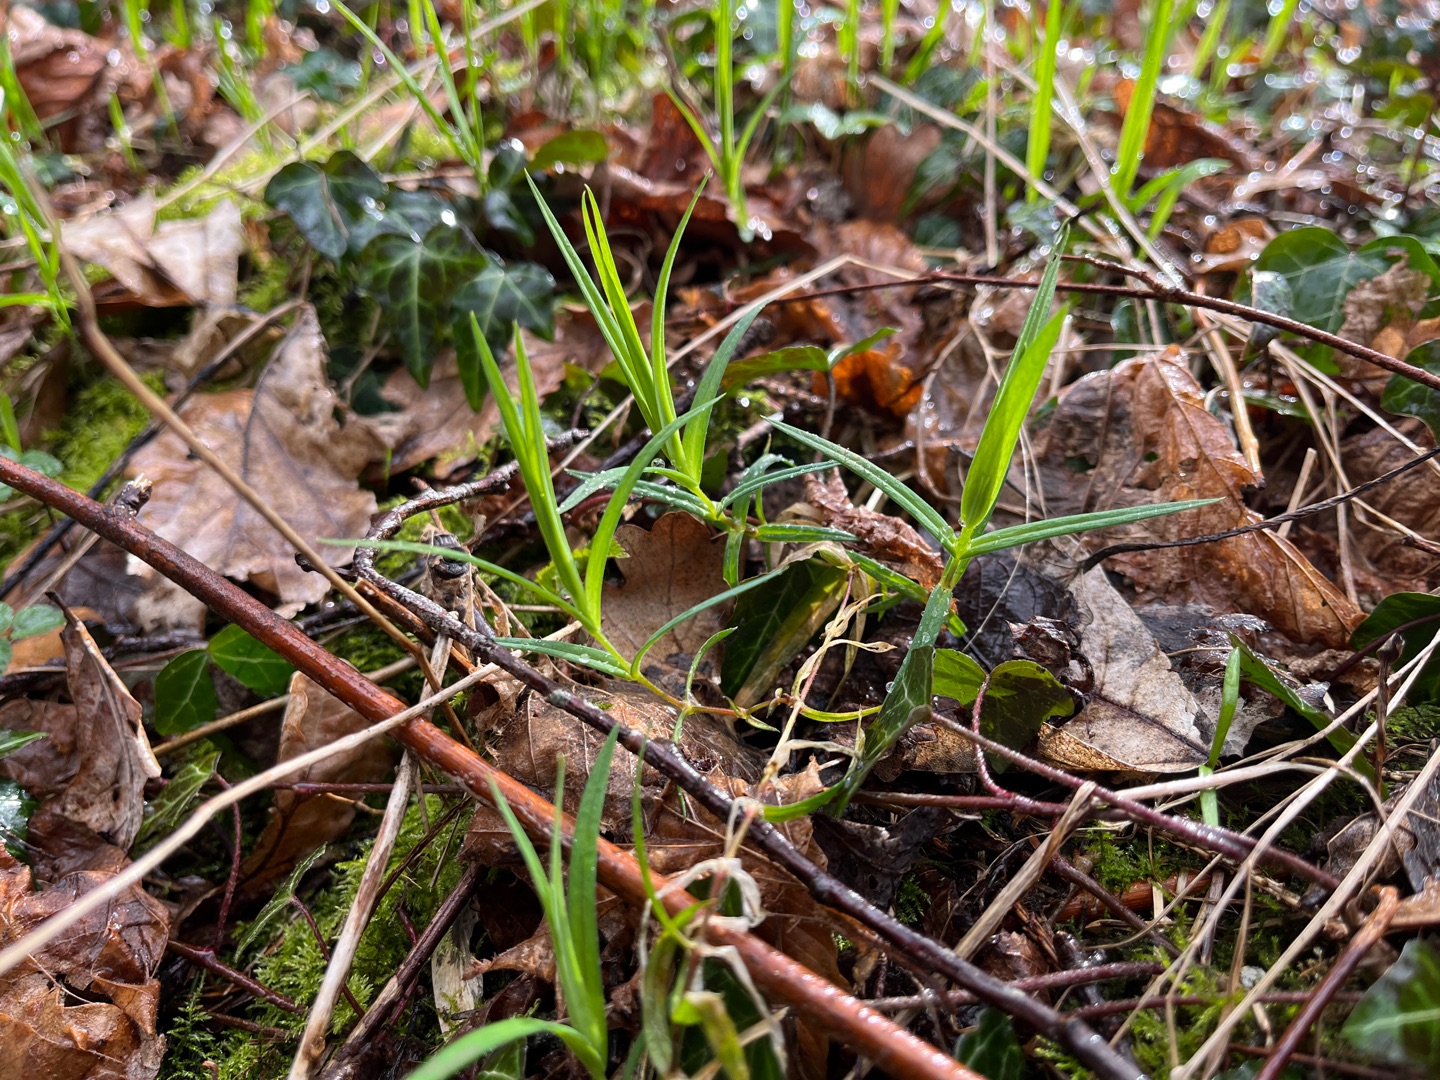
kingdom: Plantae
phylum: Tracheophyta
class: Magnoliopsida
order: Caryophyllales
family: Caryophyllaceae
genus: Rabelera
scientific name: Rabelera holostea
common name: Stor fladstjerne
